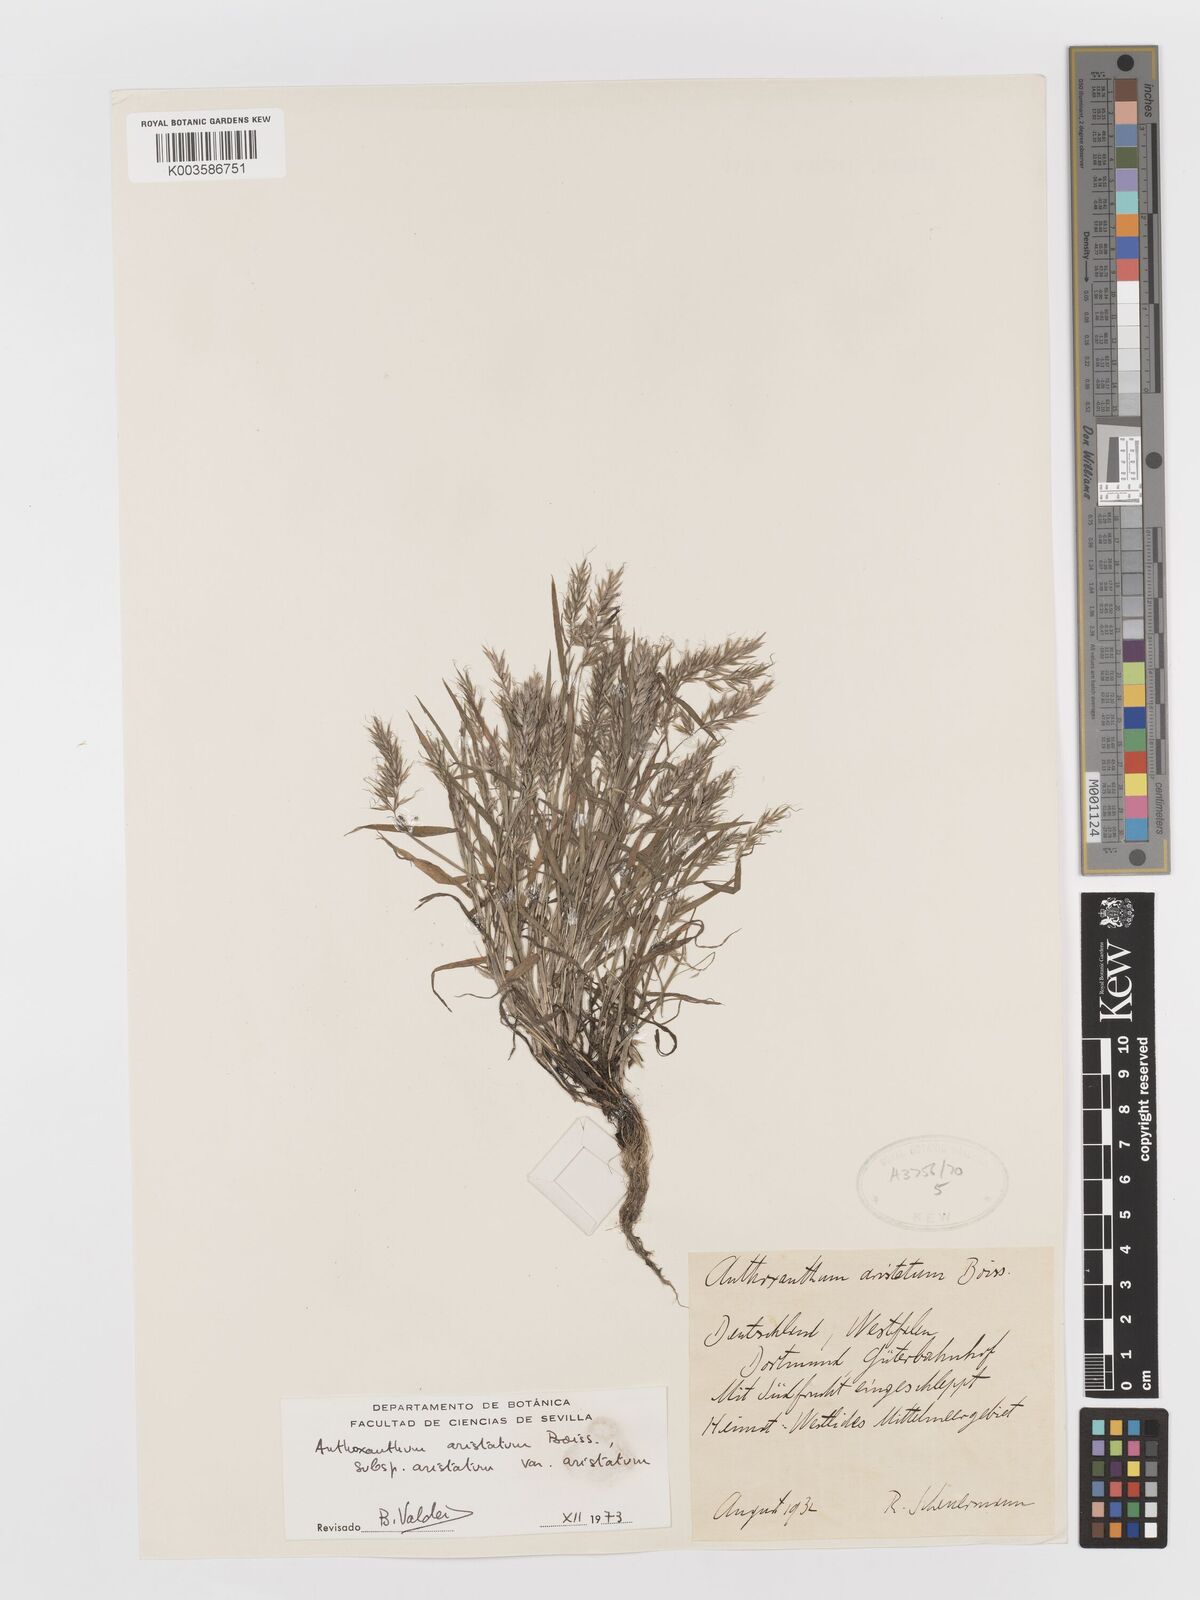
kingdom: Plantae
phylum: Tracheophyta
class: Liliopsida
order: Poales
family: Poaceae
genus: Anthoxanthum
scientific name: Anthoxanthum aristatum
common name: Annual vernal-grass
